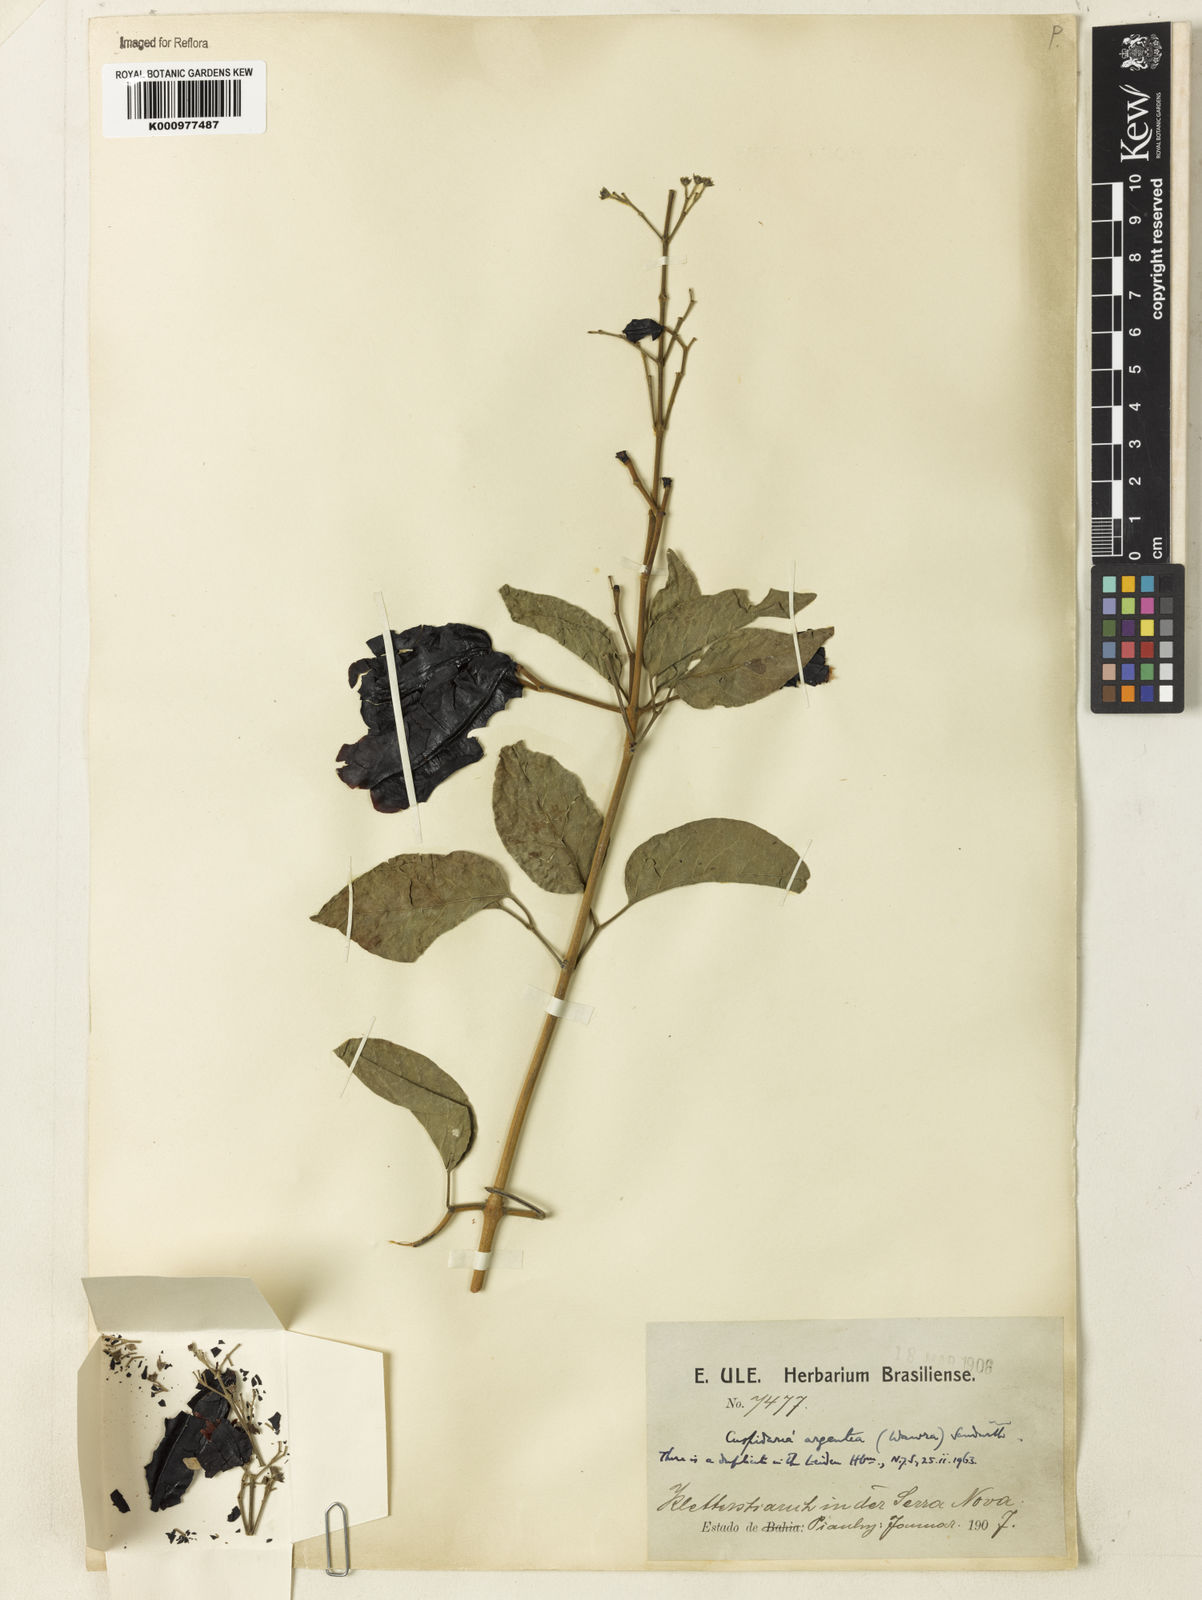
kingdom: Plantae
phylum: Tracheophyta
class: Magnoliopsida
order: Lamiales
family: Bignoniaceae
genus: Cuspidaria
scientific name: Cuspidaria argentea
